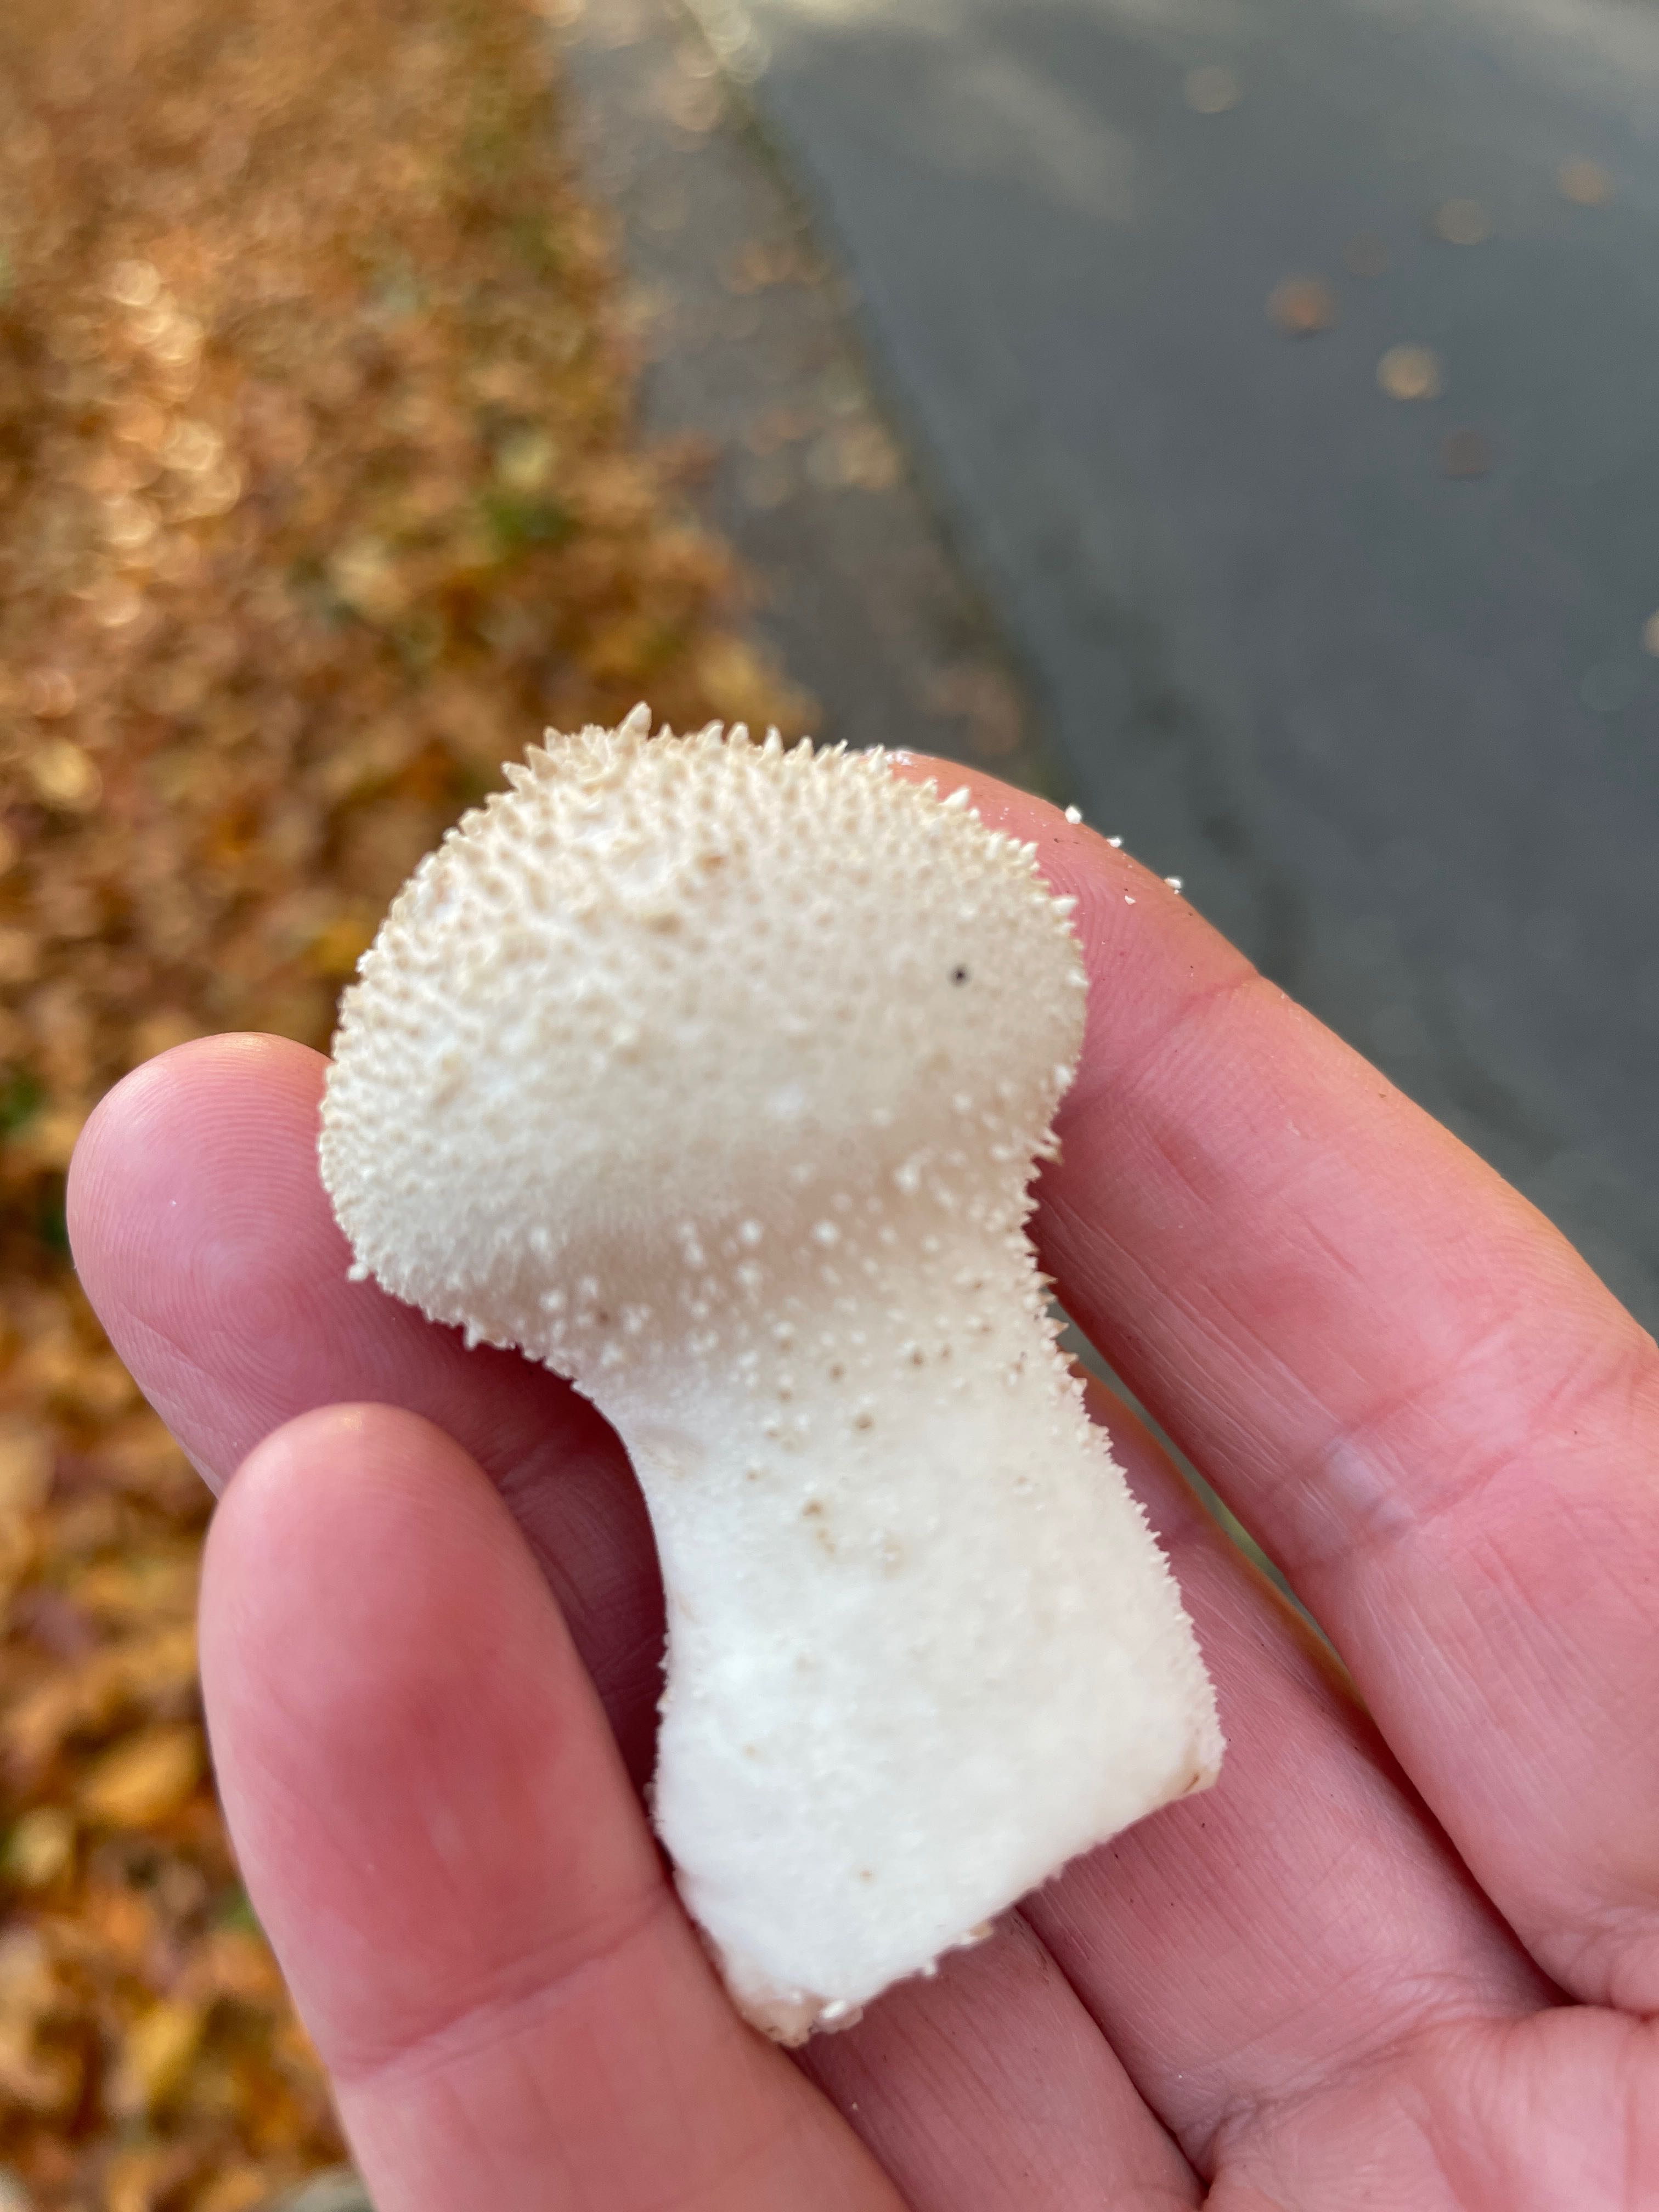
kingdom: Fungi
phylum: Basidiomycota
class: Agaricomycetes
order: Agaricales
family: Lycoperdaceae
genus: Lycoperdon
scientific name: Lycoperdon perlatum
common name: krystal-støvbold
